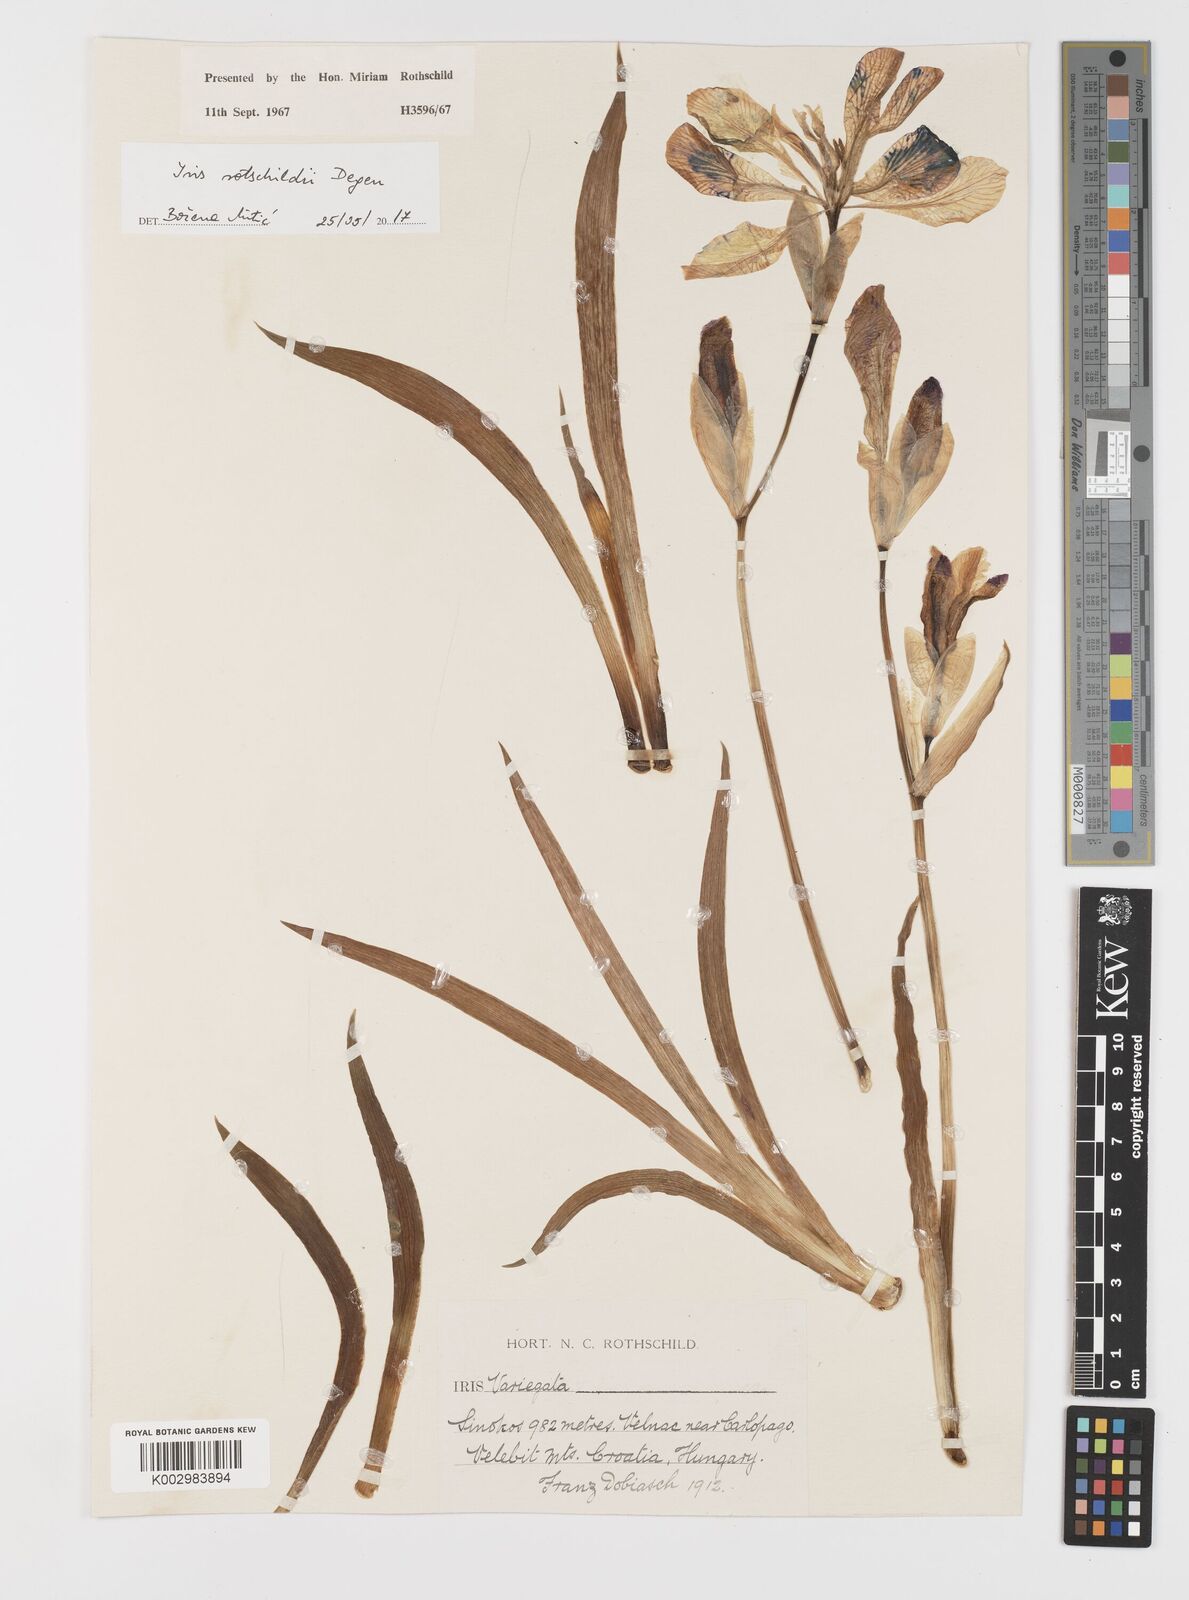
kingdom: Plantae
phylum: Tracheophyta
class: Liliopsida
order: Asparagales
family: Iridaceae
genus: Iris
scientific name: Iris germanica
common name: German iris
